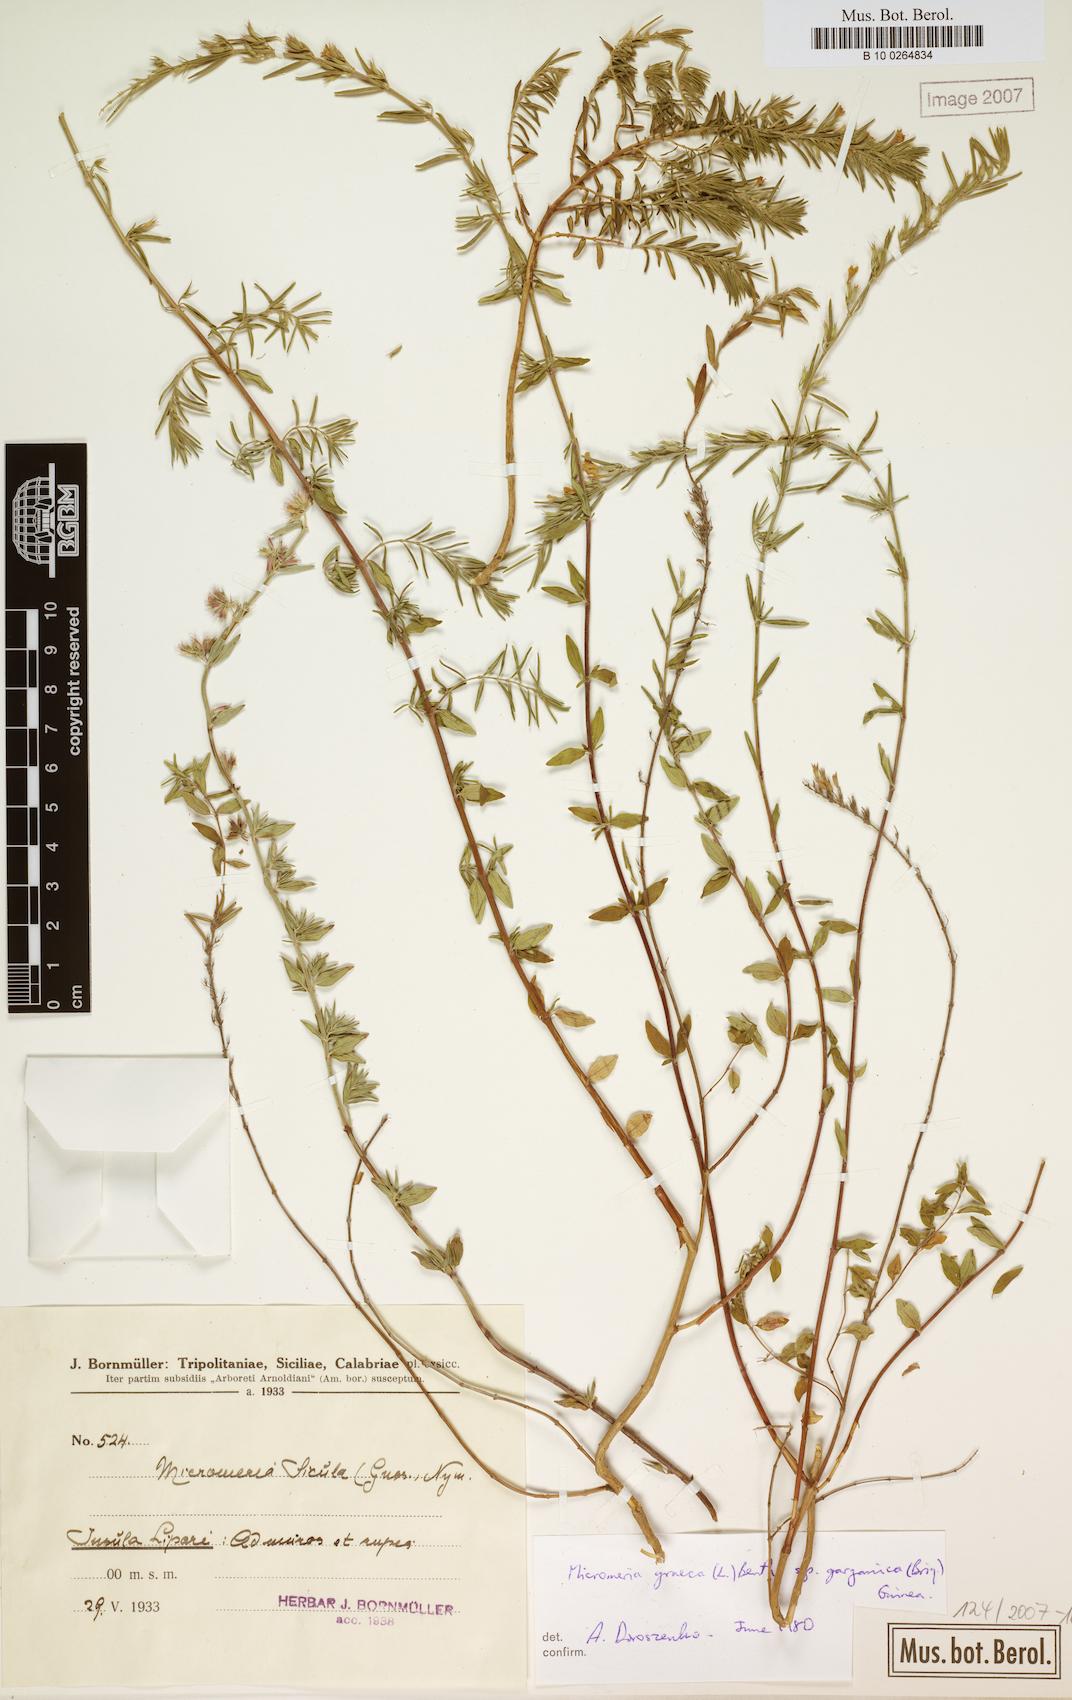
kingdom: Plantae
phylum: Tracheophyta
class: Magnoliopsida
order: Lamiales
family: Lamiaceae
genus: Micromeria
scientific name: Micromeria graeca
